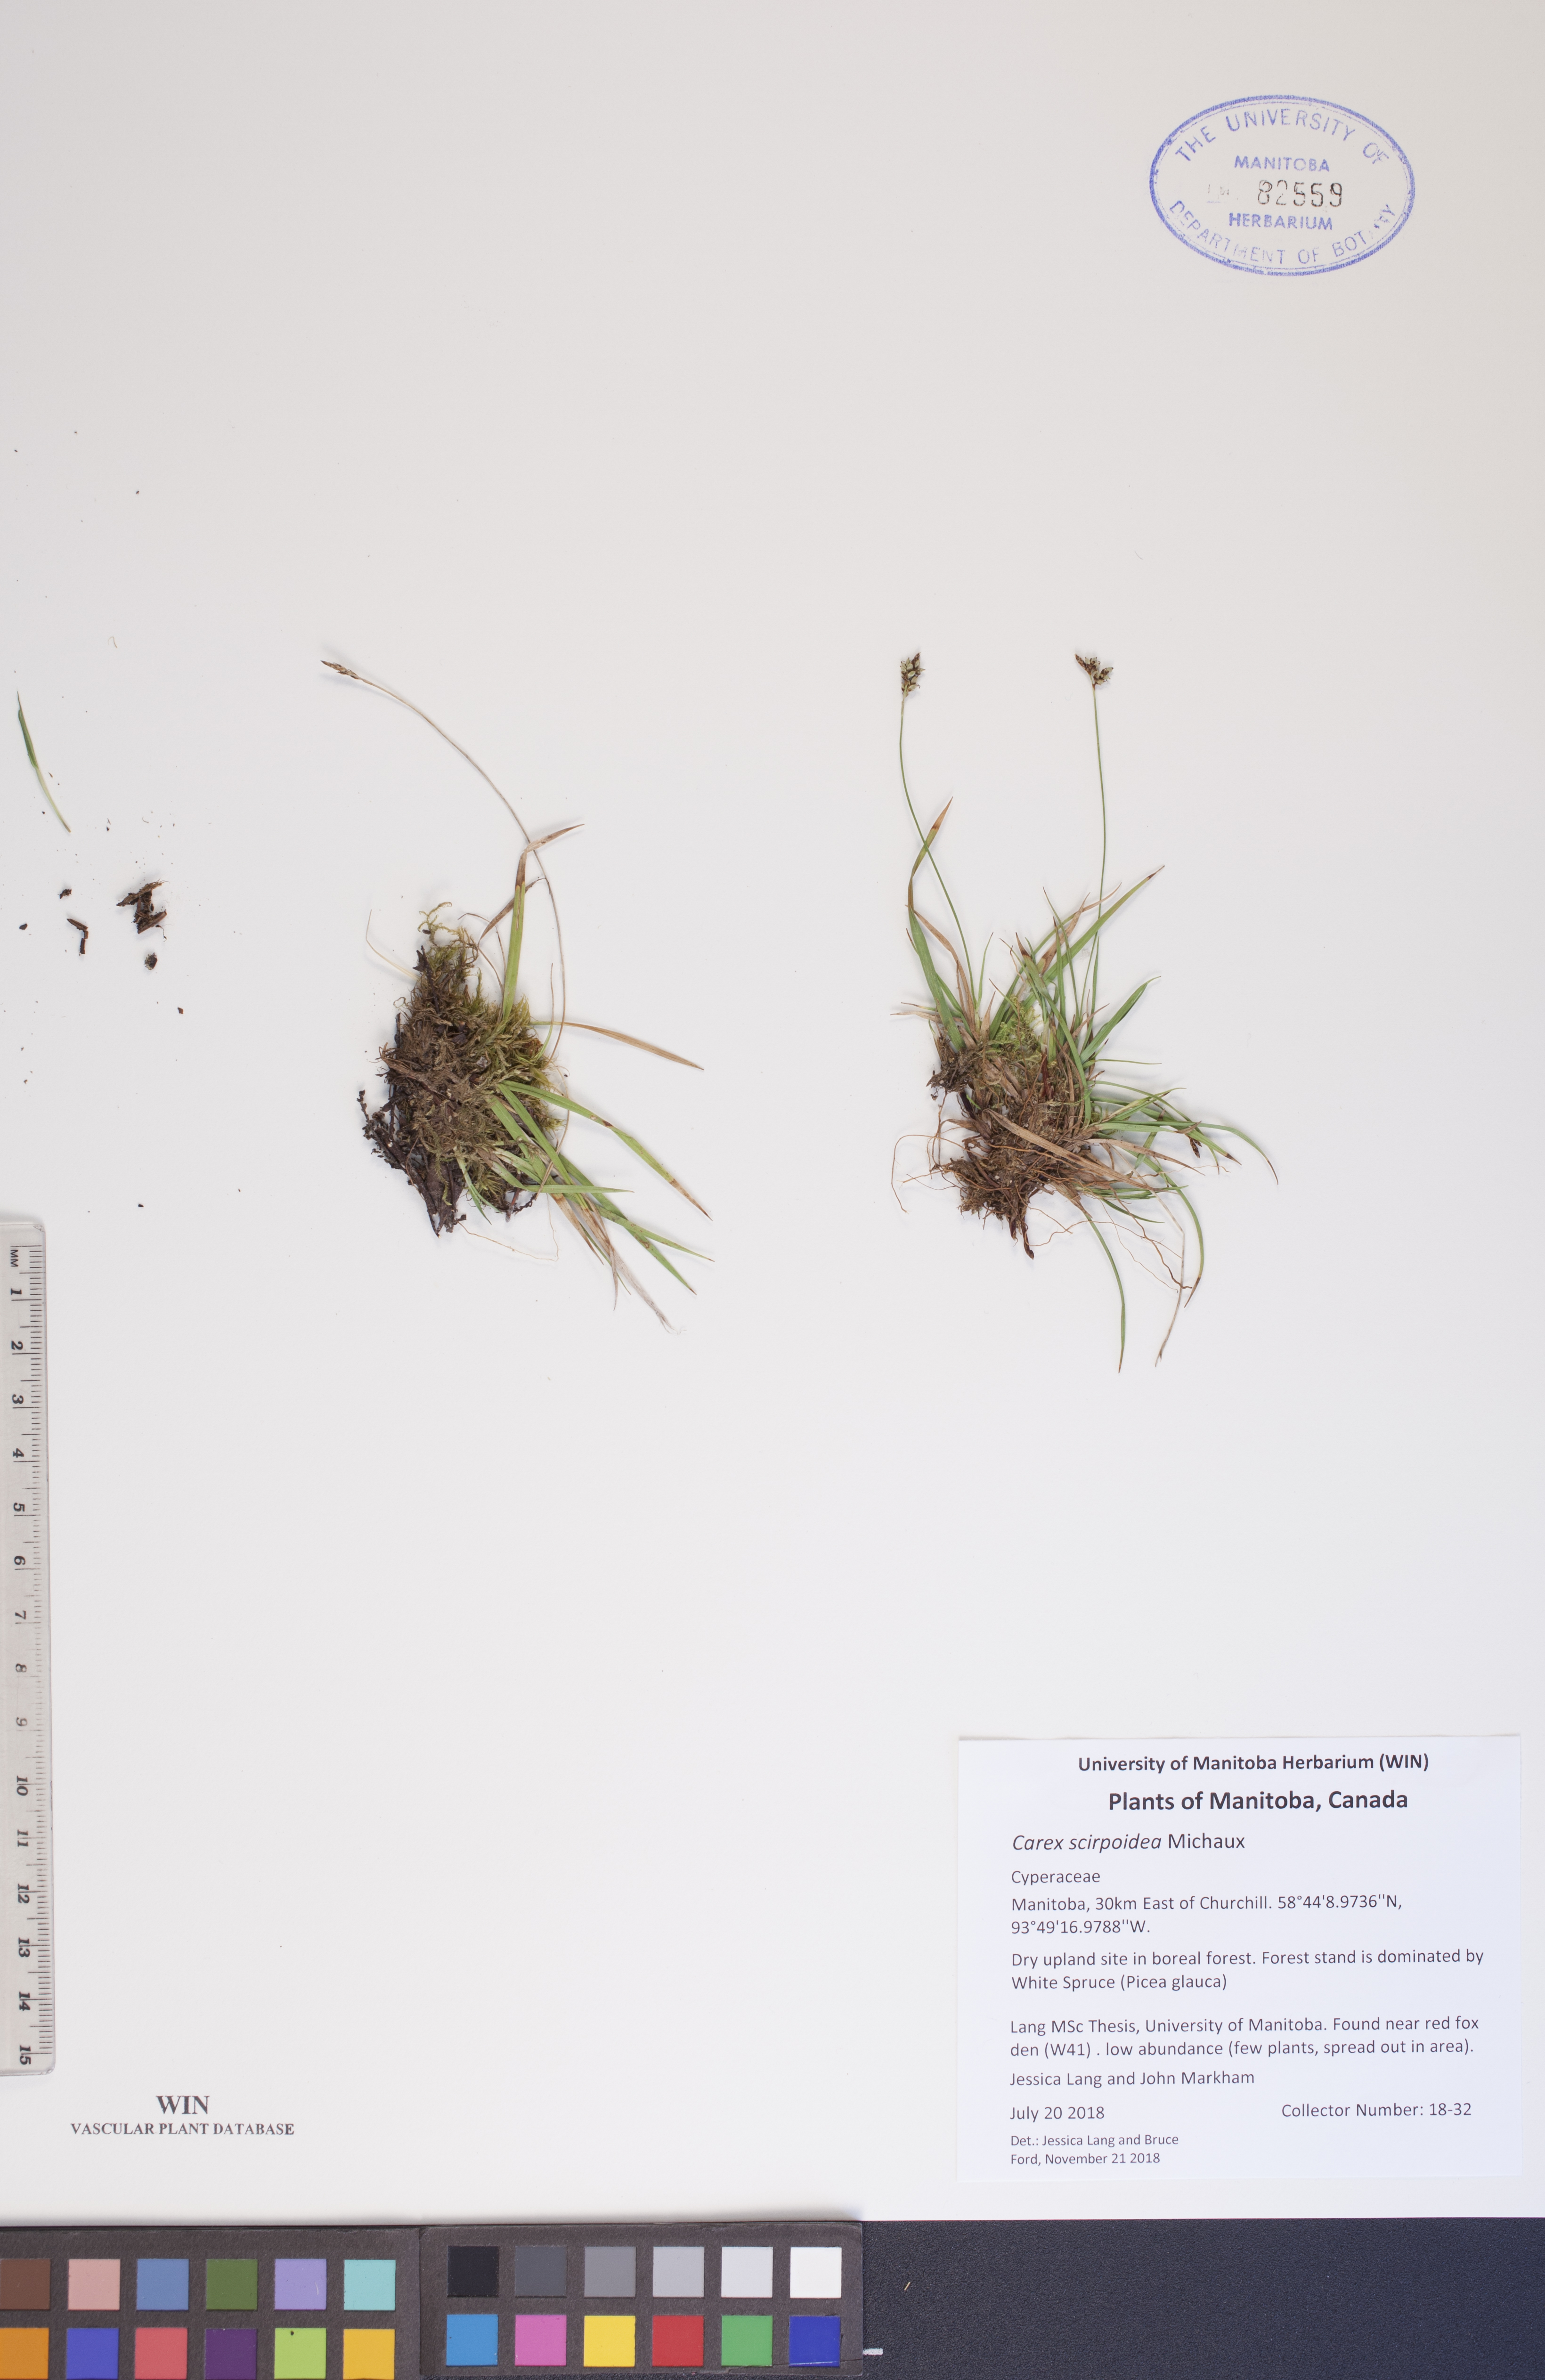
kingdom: Plantae
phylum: Tracheophyta
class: Liliopsida
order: Poales
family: Cyperaceae
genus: Carex
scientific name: Carex scirpoidea
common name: Canada single-spike sedge
